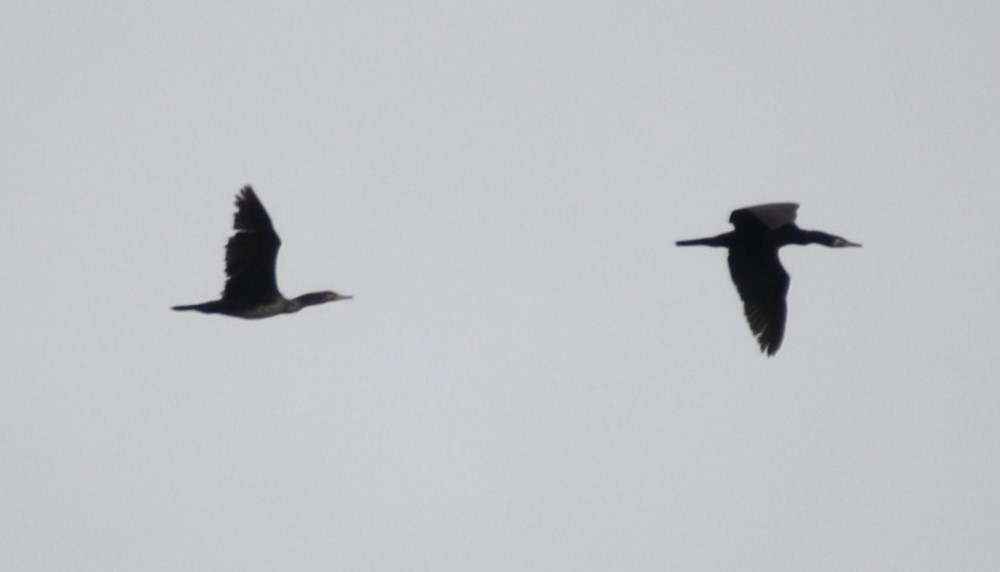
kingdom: Animalia
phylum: Chordata
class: Aves
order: Suliformes
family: Phalacrocoracidae
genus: Phalacrocorax
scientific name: Phalacrocorax carbo
